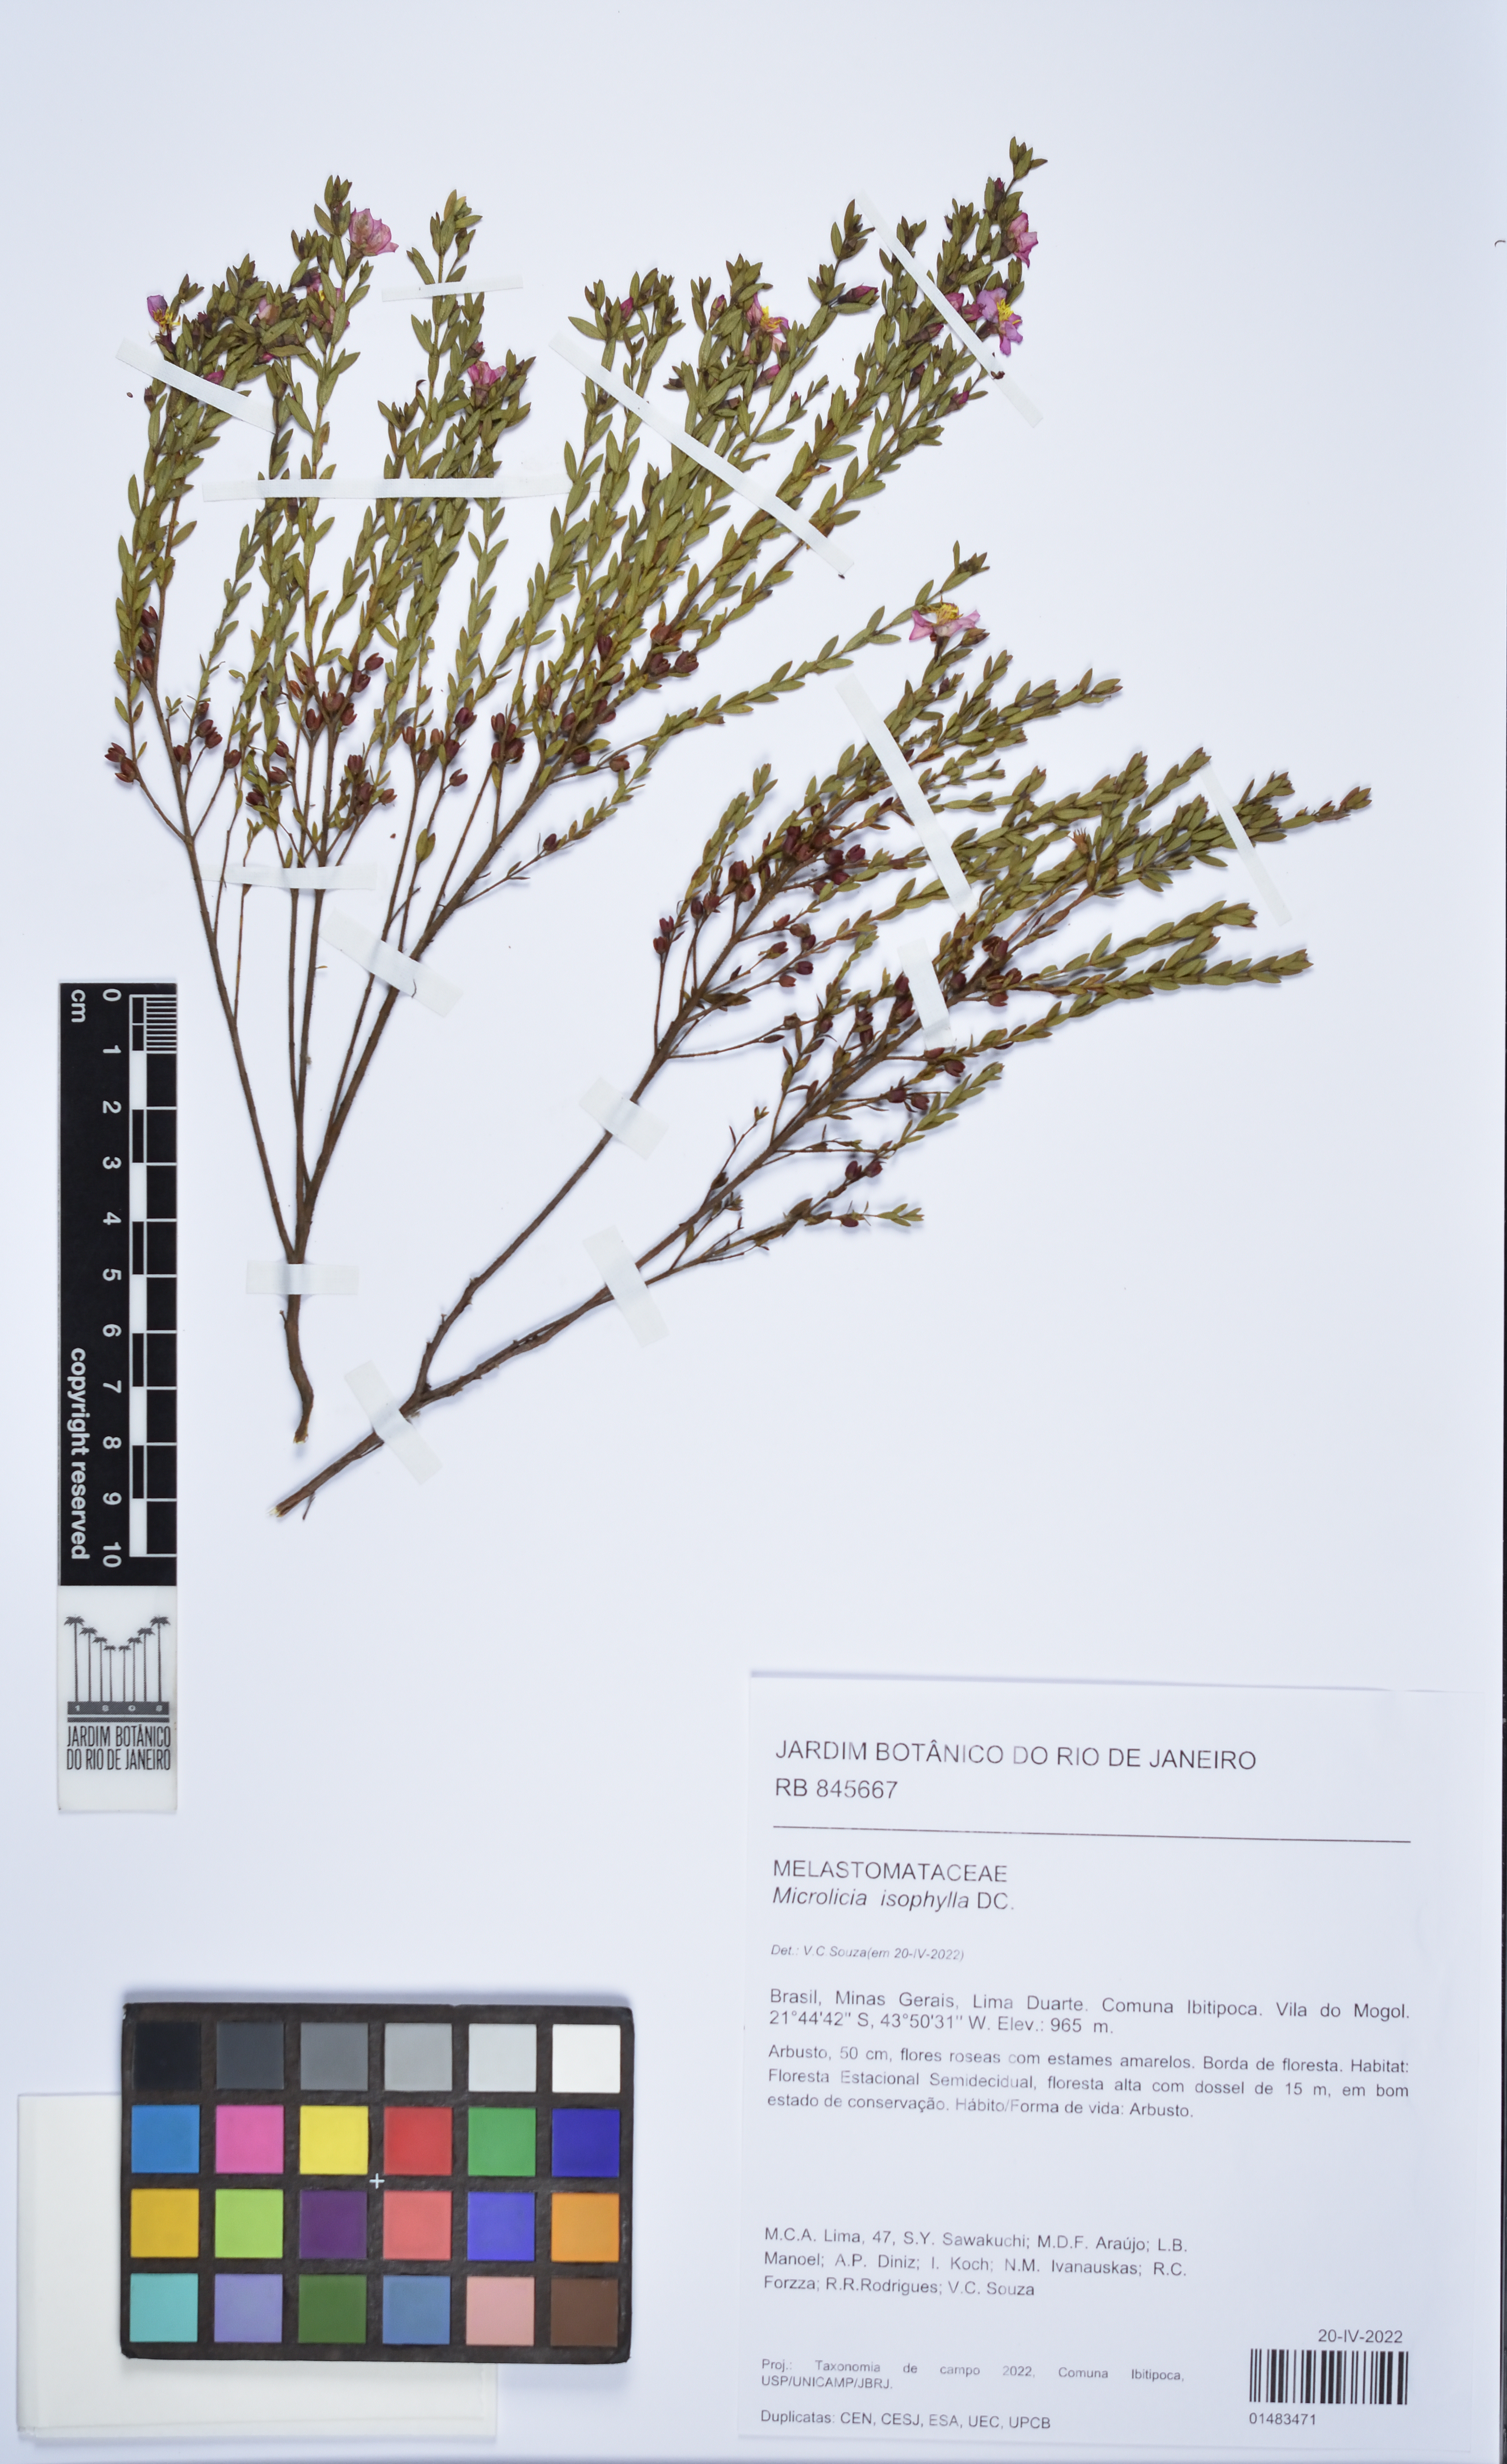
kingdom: Plantae
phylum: Tracheophyta
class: Magnoliopsida
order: Myrtales
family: Melastomataceae
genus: Microlicia
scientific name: Microlicia isophylla
